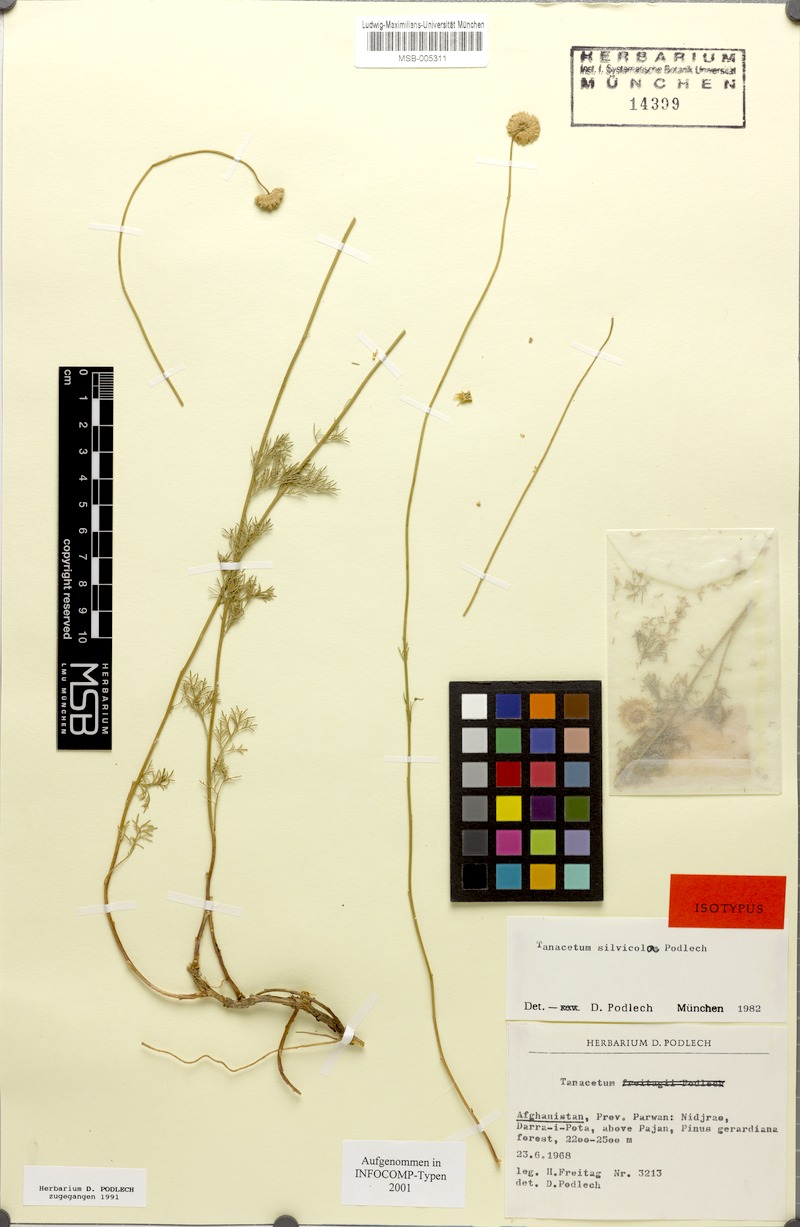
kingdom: Plantae
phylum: Tracheophyta
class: Magnoliopsida
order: Asterales
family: Asteraceae
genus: Tanacetum
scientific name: Tanacetum silvicola
